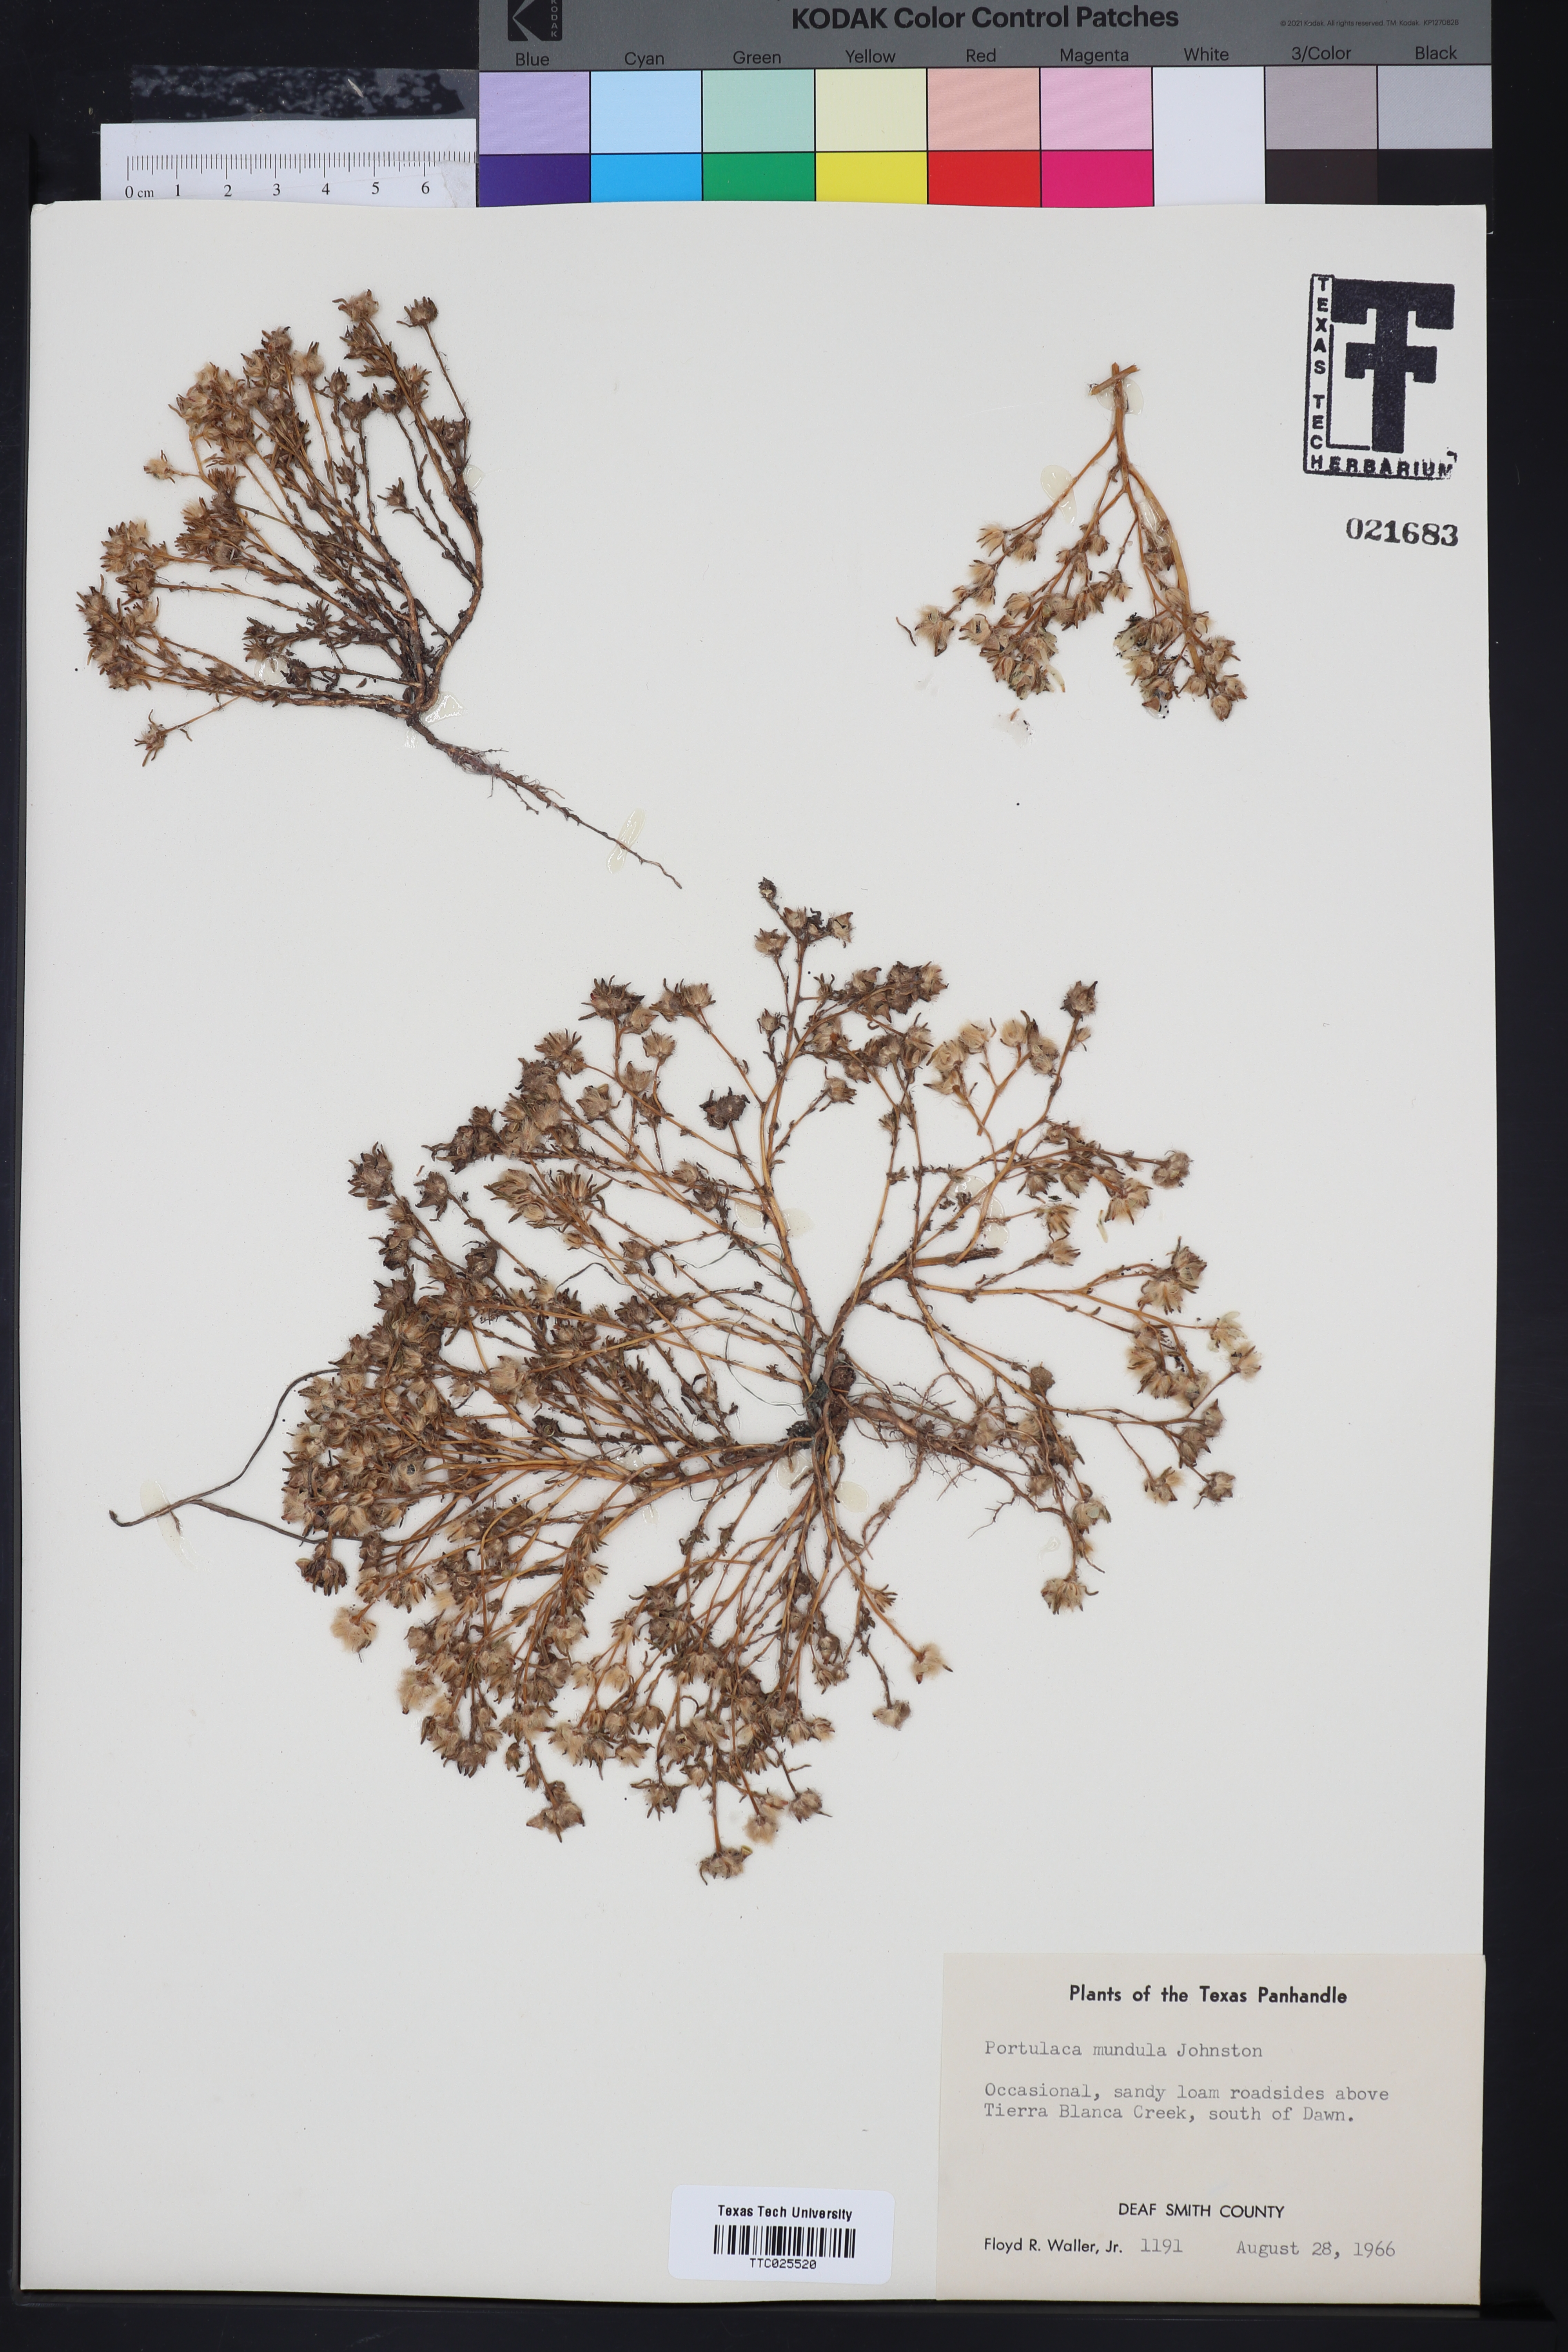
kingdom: Plantae
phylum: Tracheophyta
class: Magnoliopsida
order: Caryophyllales
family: Portulacaceae
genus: Portulaca
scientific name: Portulaca pilosa
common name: Kiss me quick
